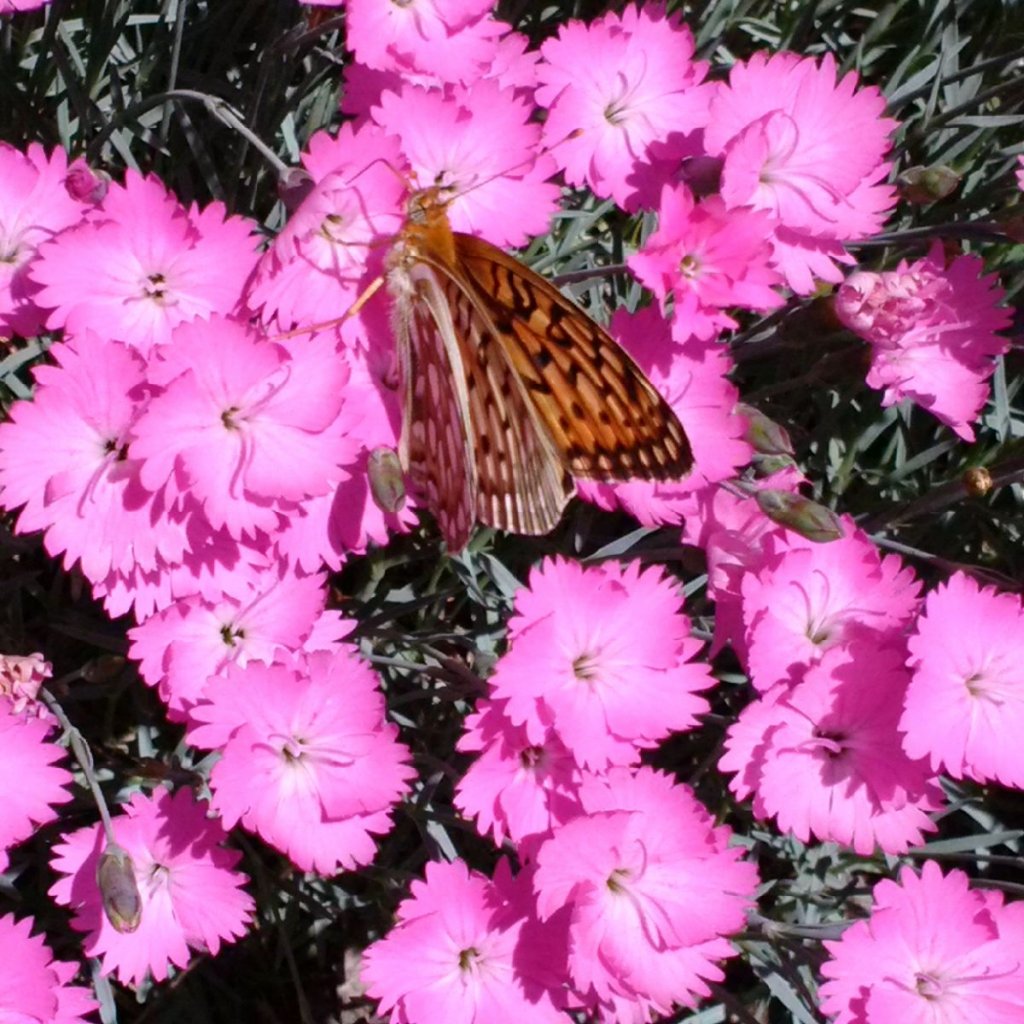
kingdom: Animalia
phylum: Arthropoda
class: Insecta
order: Lepidoptera
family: Nymphalidae
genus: Speyeria
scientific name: Speyeria callippe
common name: Callippe Fritillary
